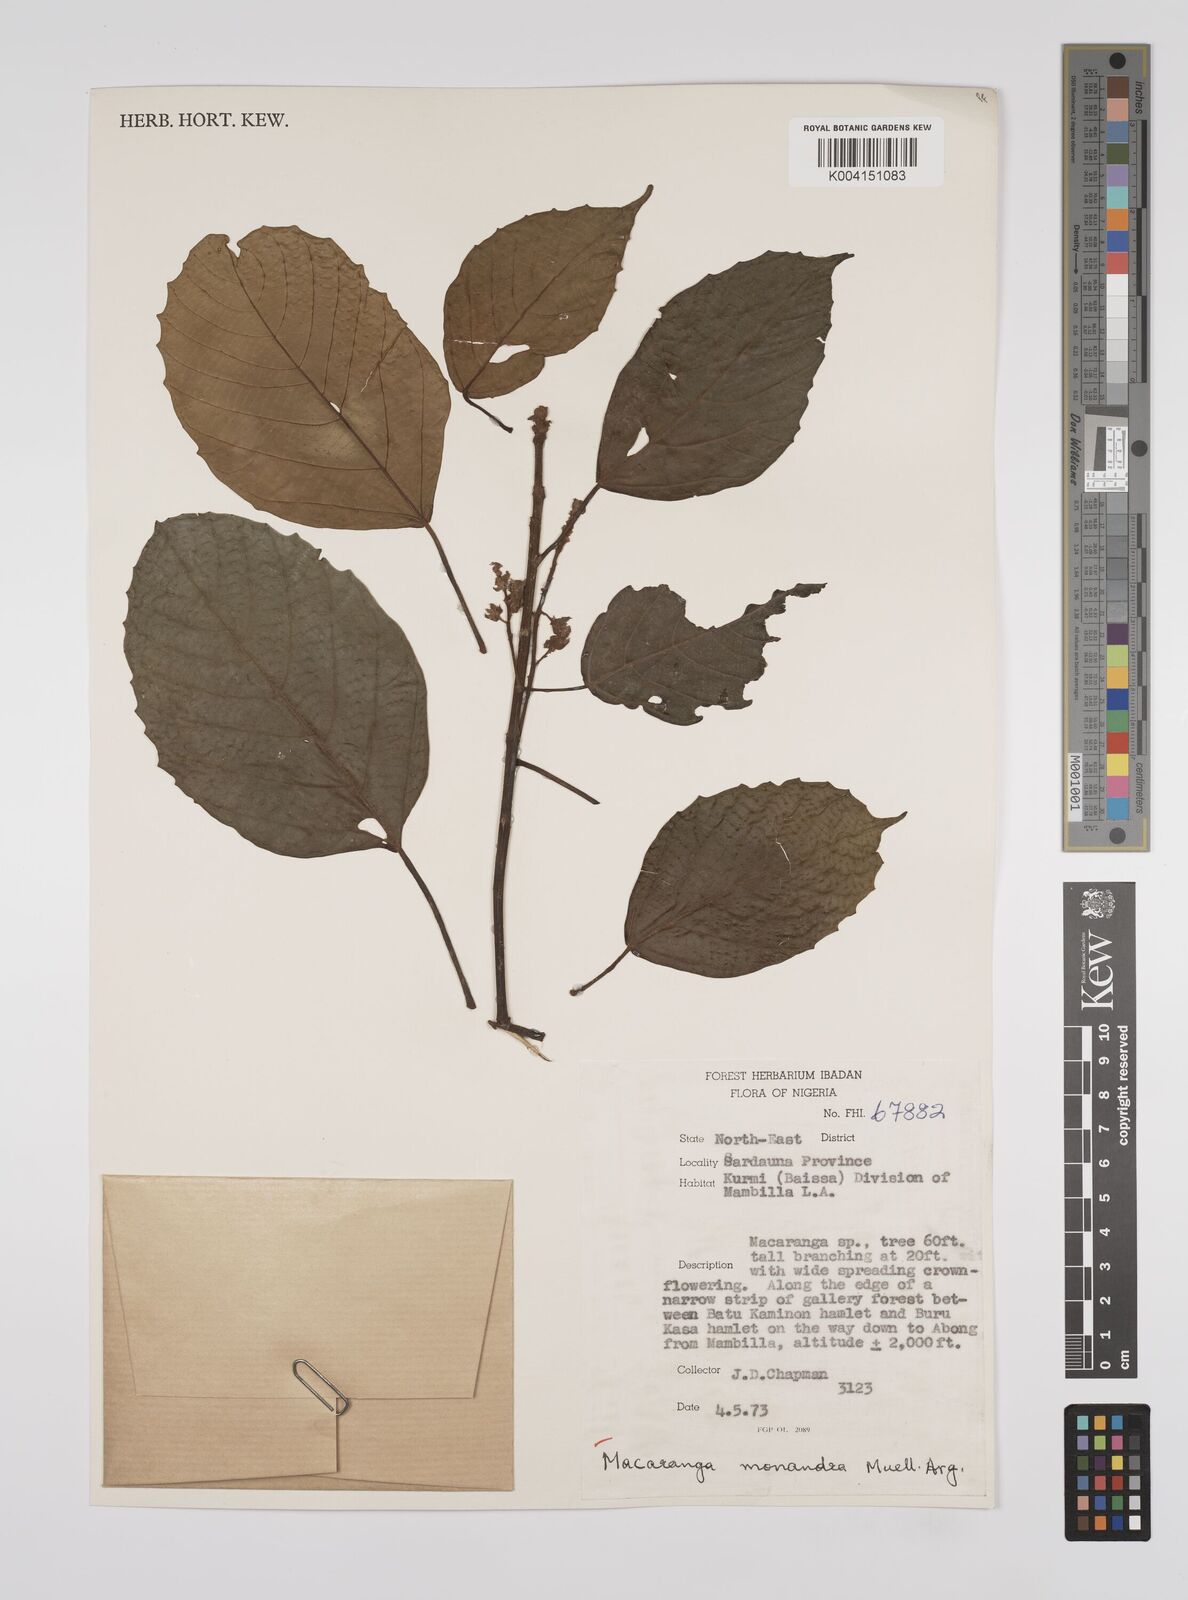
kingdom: Plantae
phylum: Tracheophyta
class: Magnoliopsida
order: Malpighiales
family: Euphorbiaceae
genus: Macaranga
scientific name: Macaranga monandra
